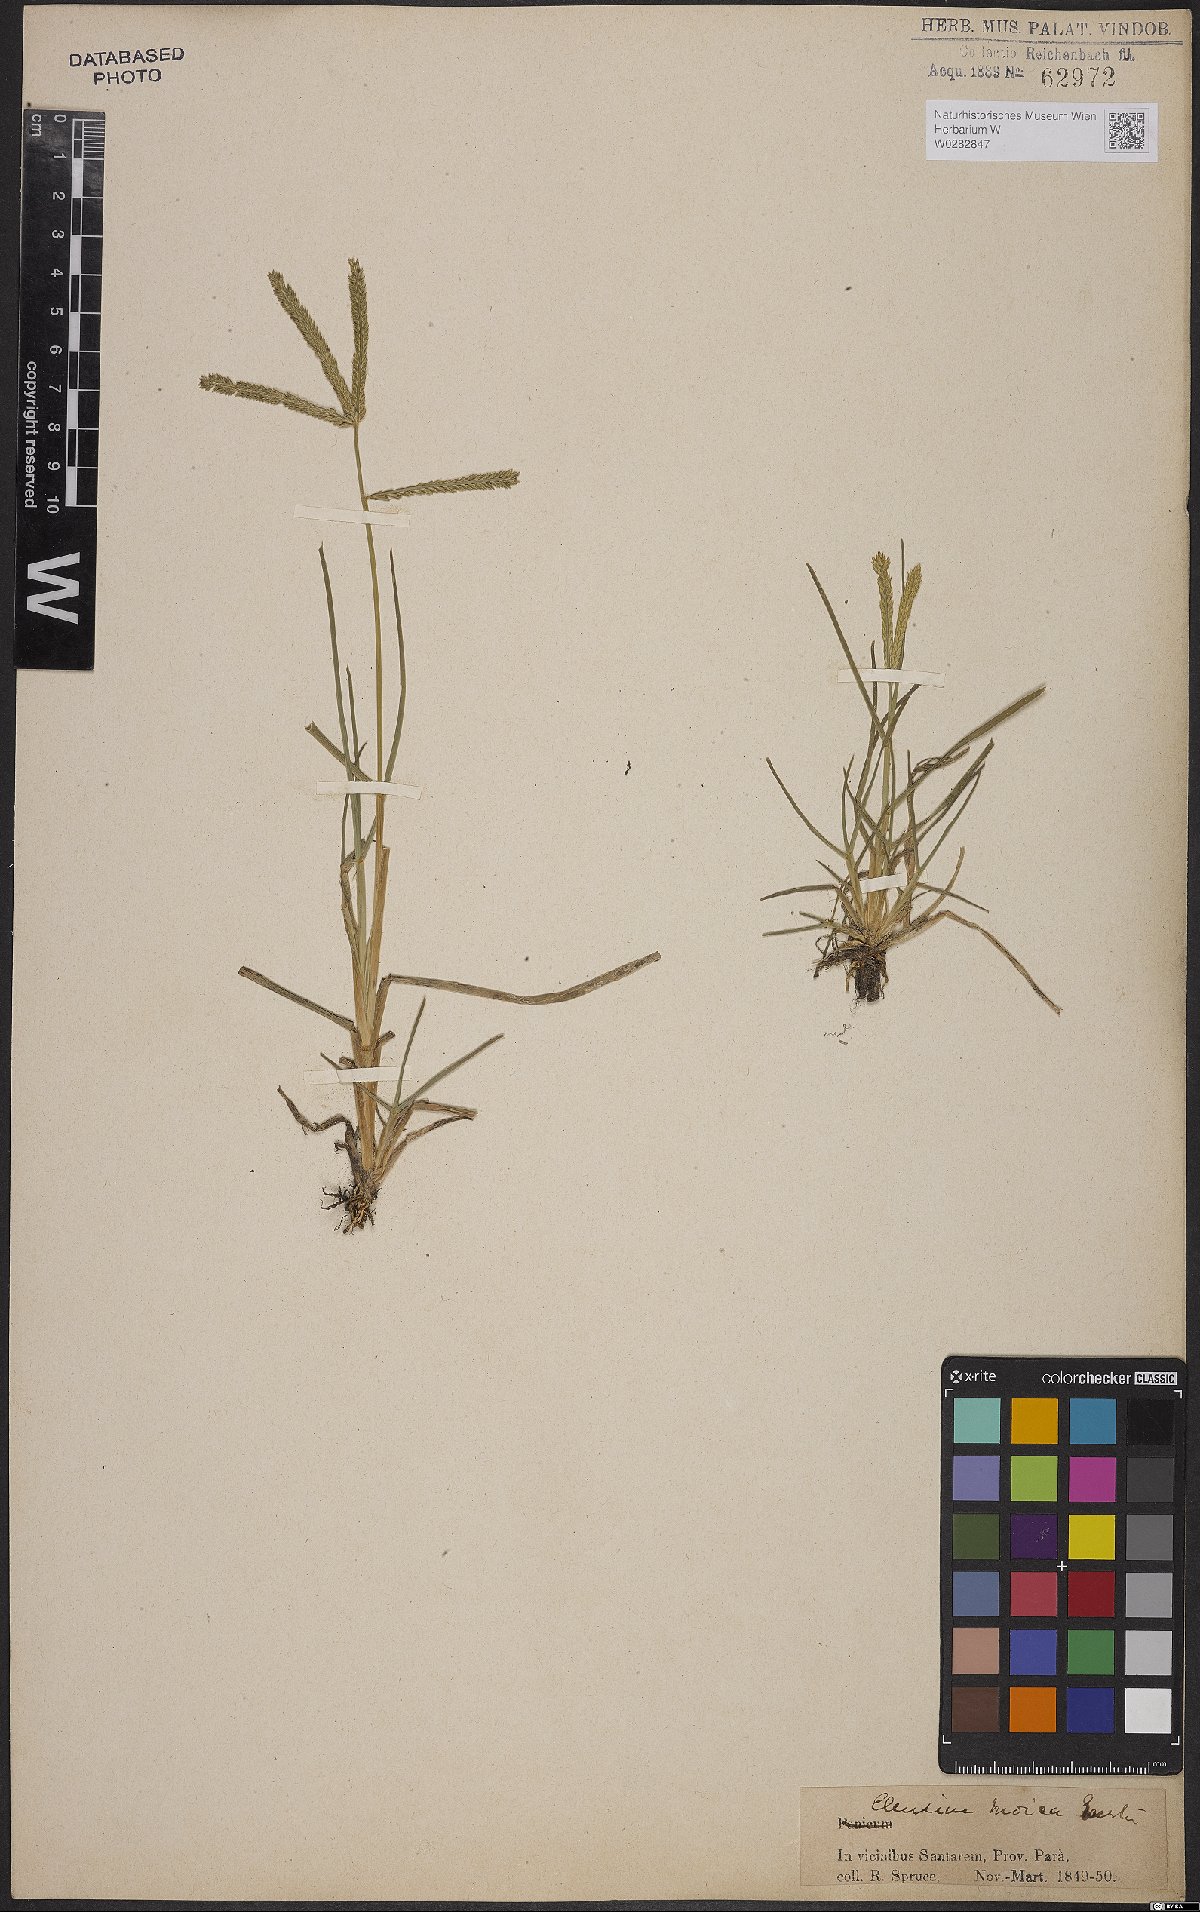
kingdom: Plantae
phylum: Tracheophyta
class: Liliopsida
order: Poales
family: Poaceae
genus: Eleusine
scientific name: Eleusine indica
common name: Yard-grass
